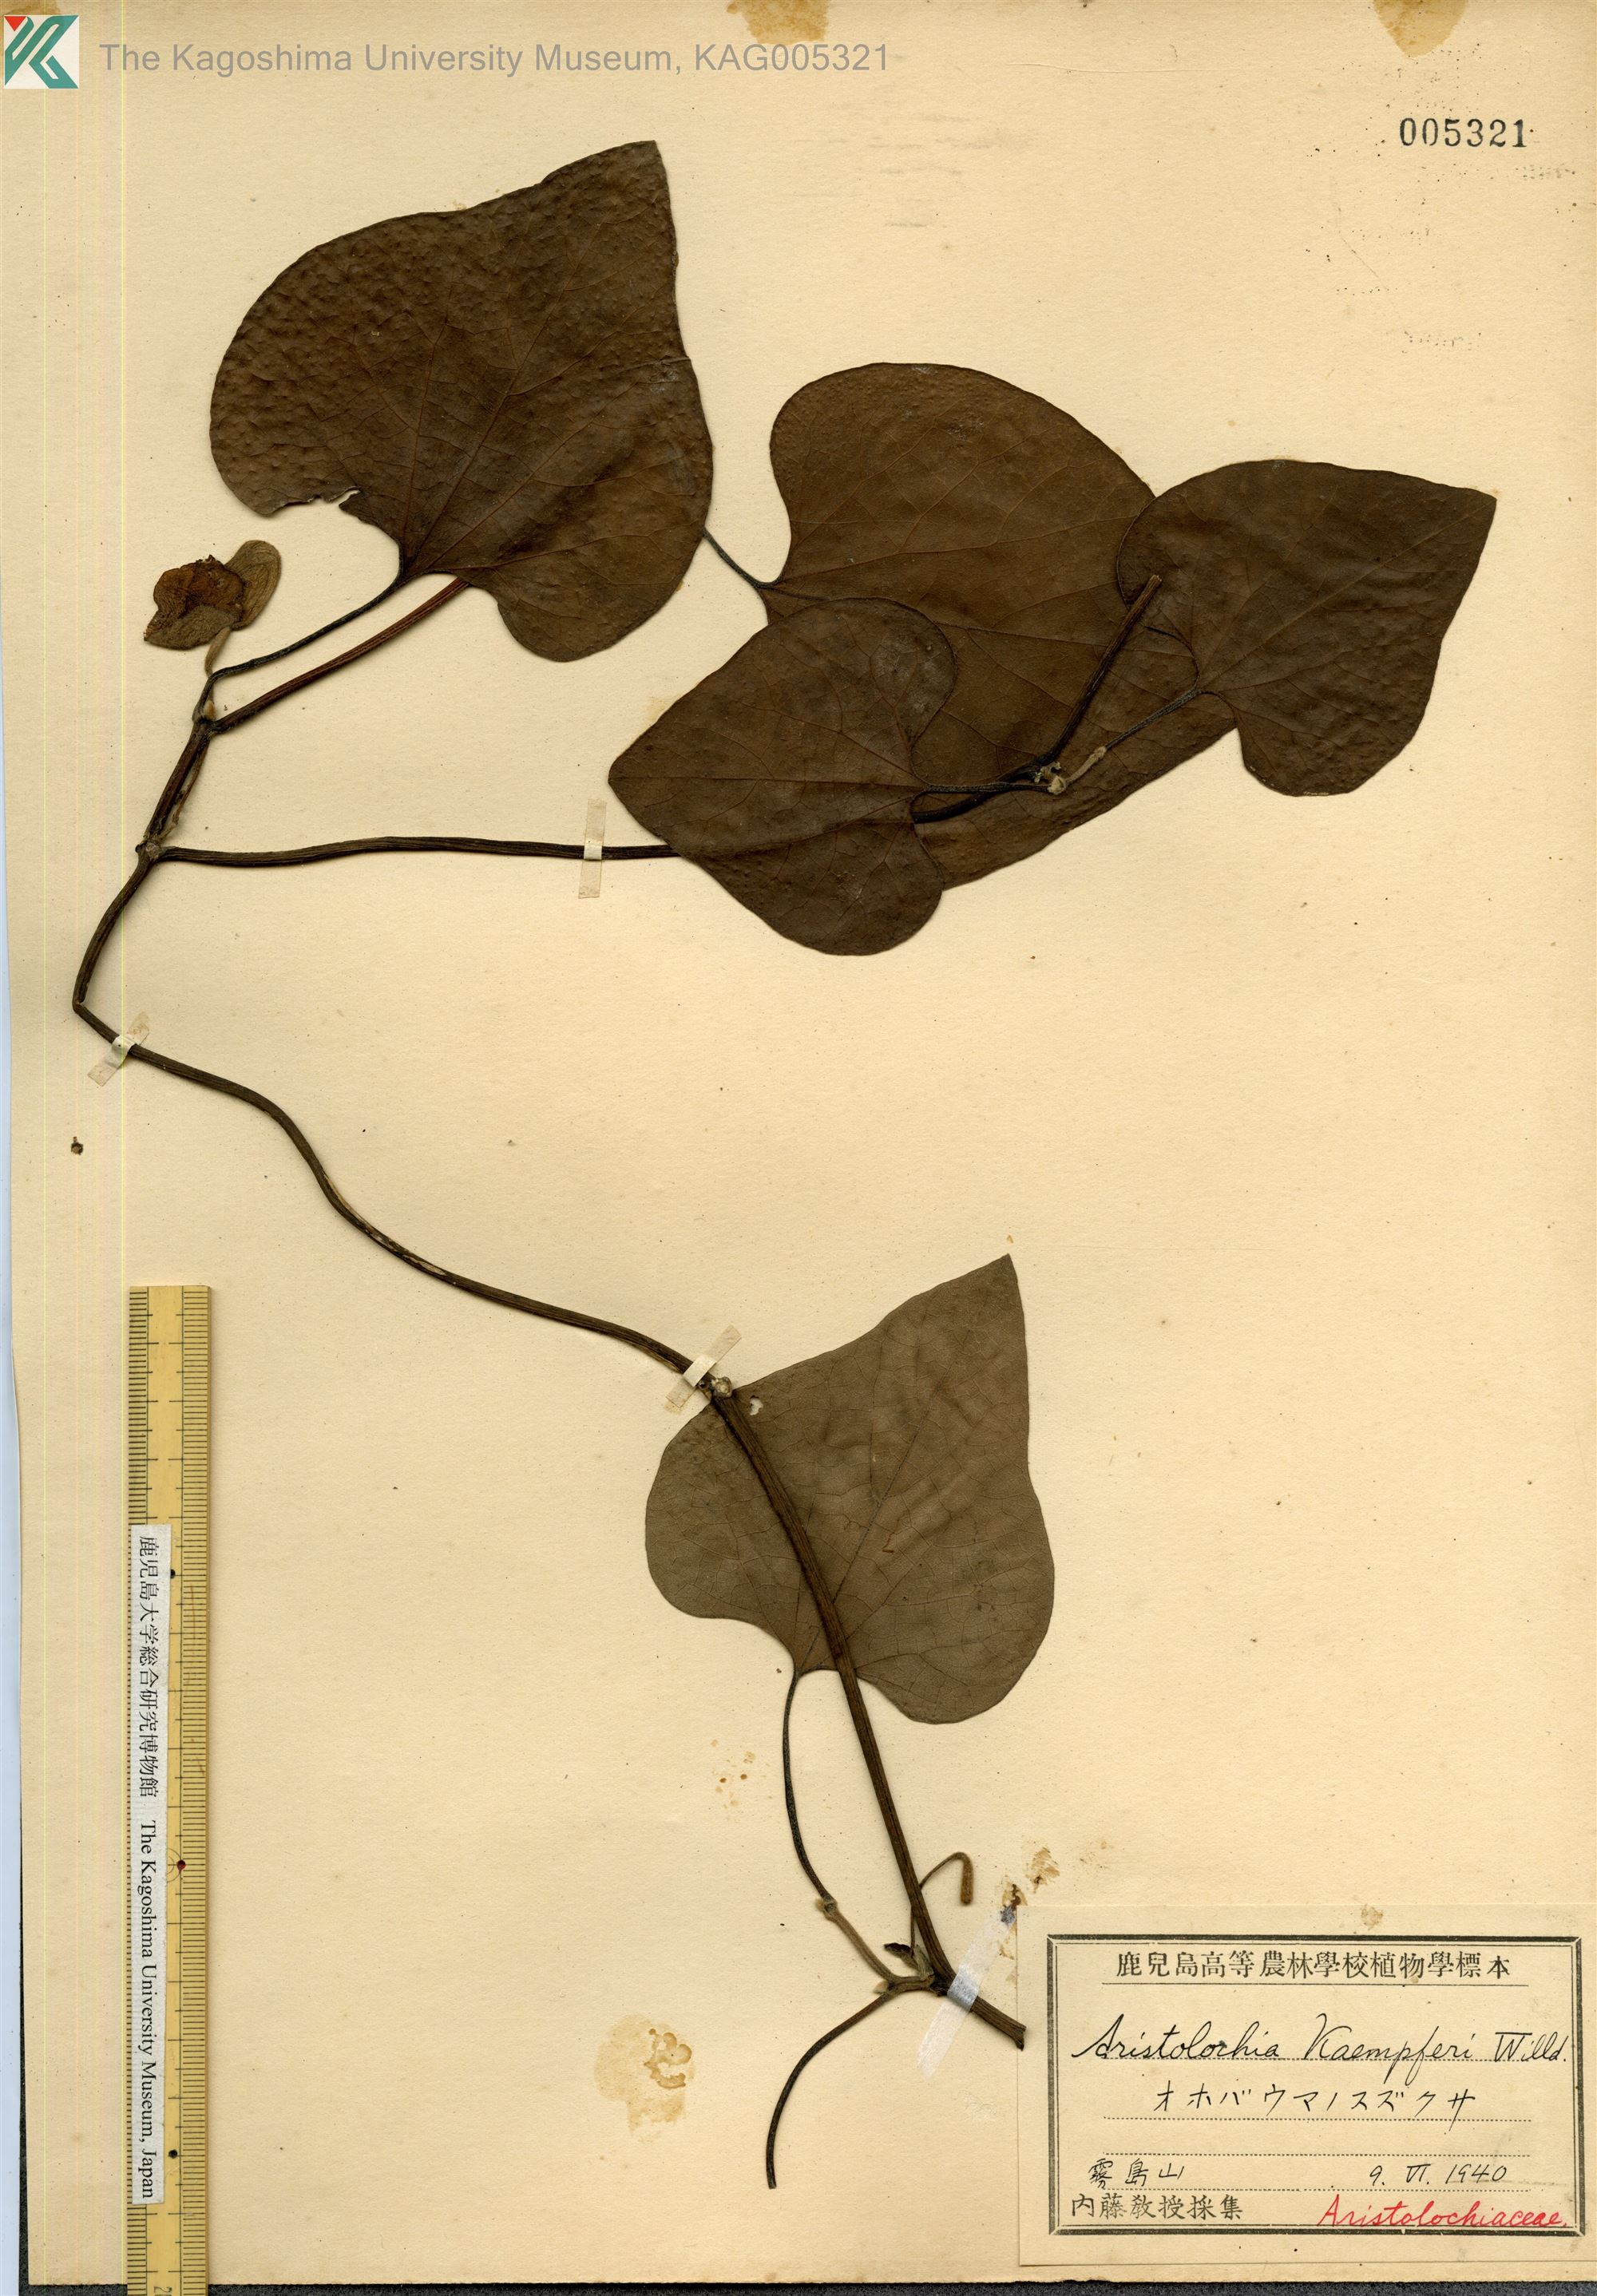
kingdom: Plantae
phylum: Tracheophyta
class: Magnoliopsida
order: Piperales
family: Aristolochiaceae
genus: Isotrema
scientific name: Isotrema kaempferi
